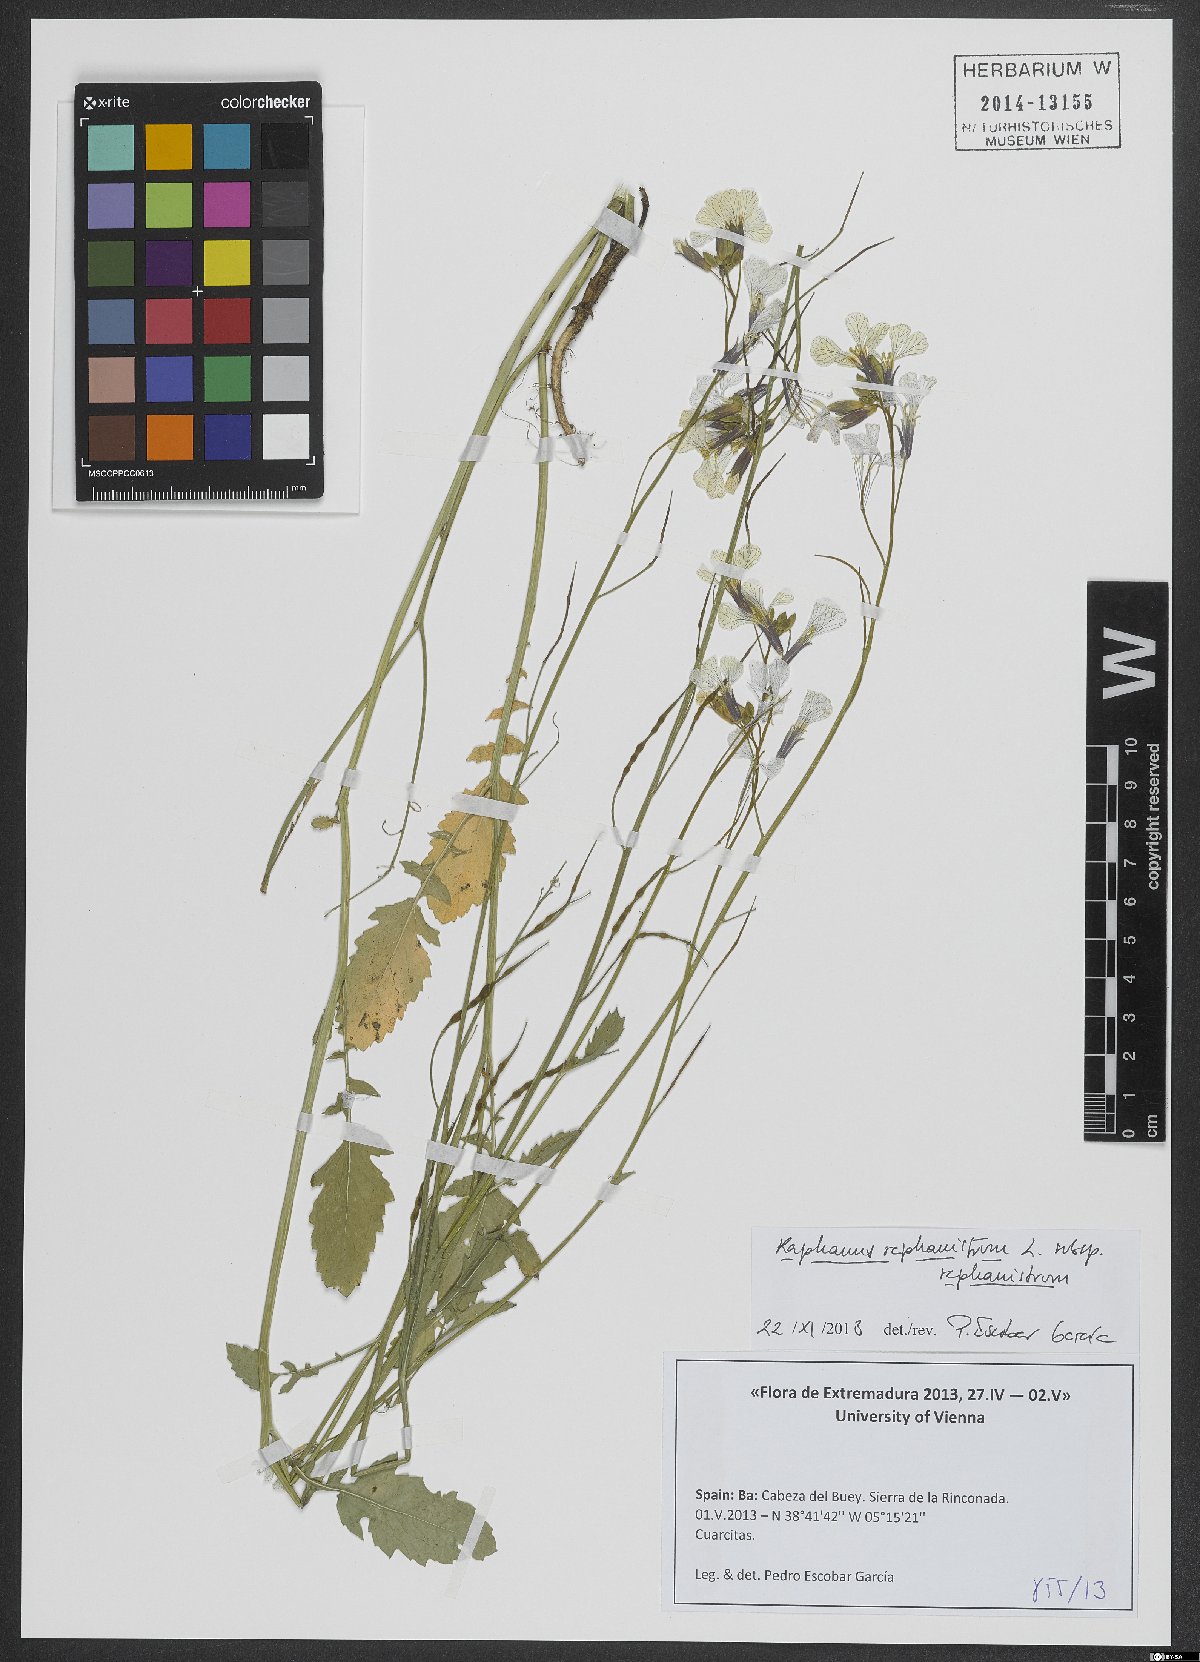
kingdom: Plantae
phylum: Tracheophyta
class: Magnoliopsida
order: Brassicales
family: Brassicaceae
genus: Raphanus
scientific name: Raphanus raphanistrum
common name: Wild radish
